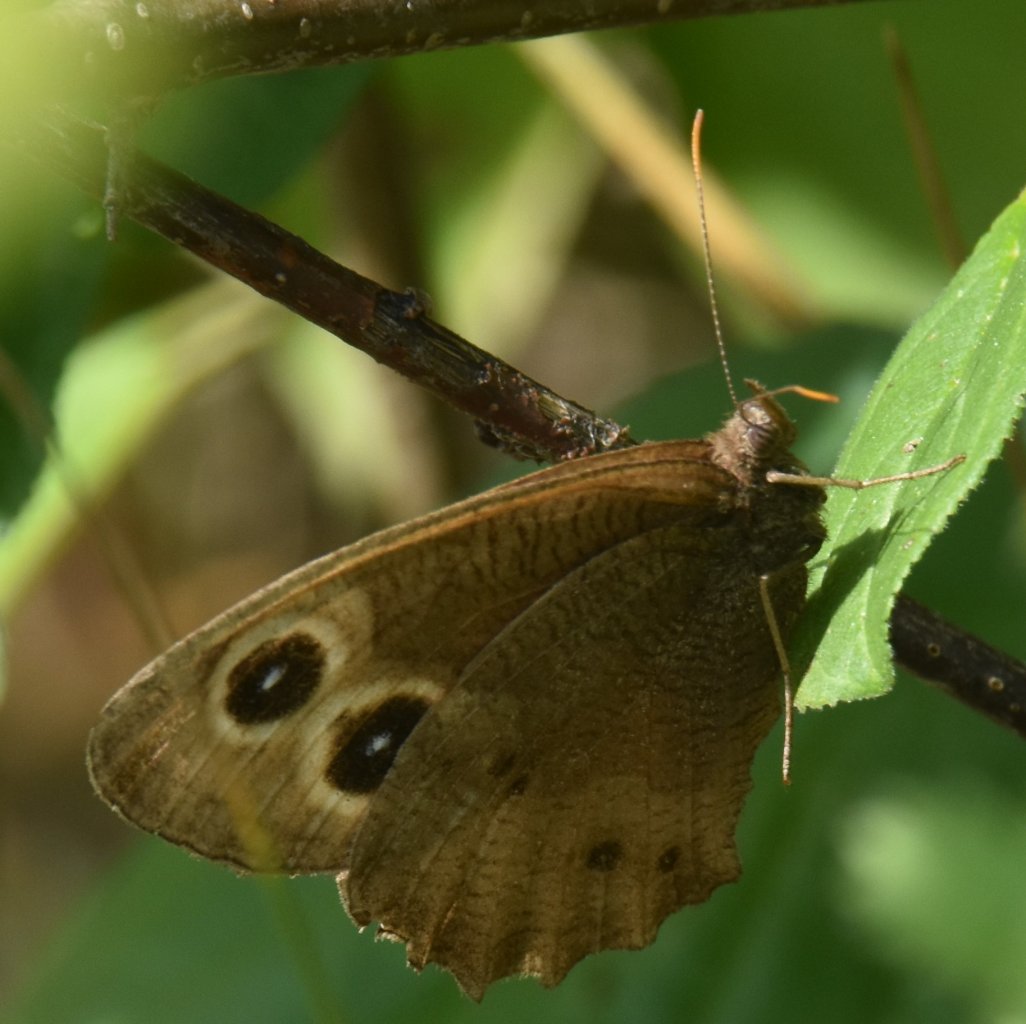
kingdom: Animalia
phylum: Arthropoda
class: Insecta
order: Lepidoptera
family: Nymphalidae
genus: Cercyonis
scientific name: Cercyonis pegala
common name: Common Wood-Nymph
